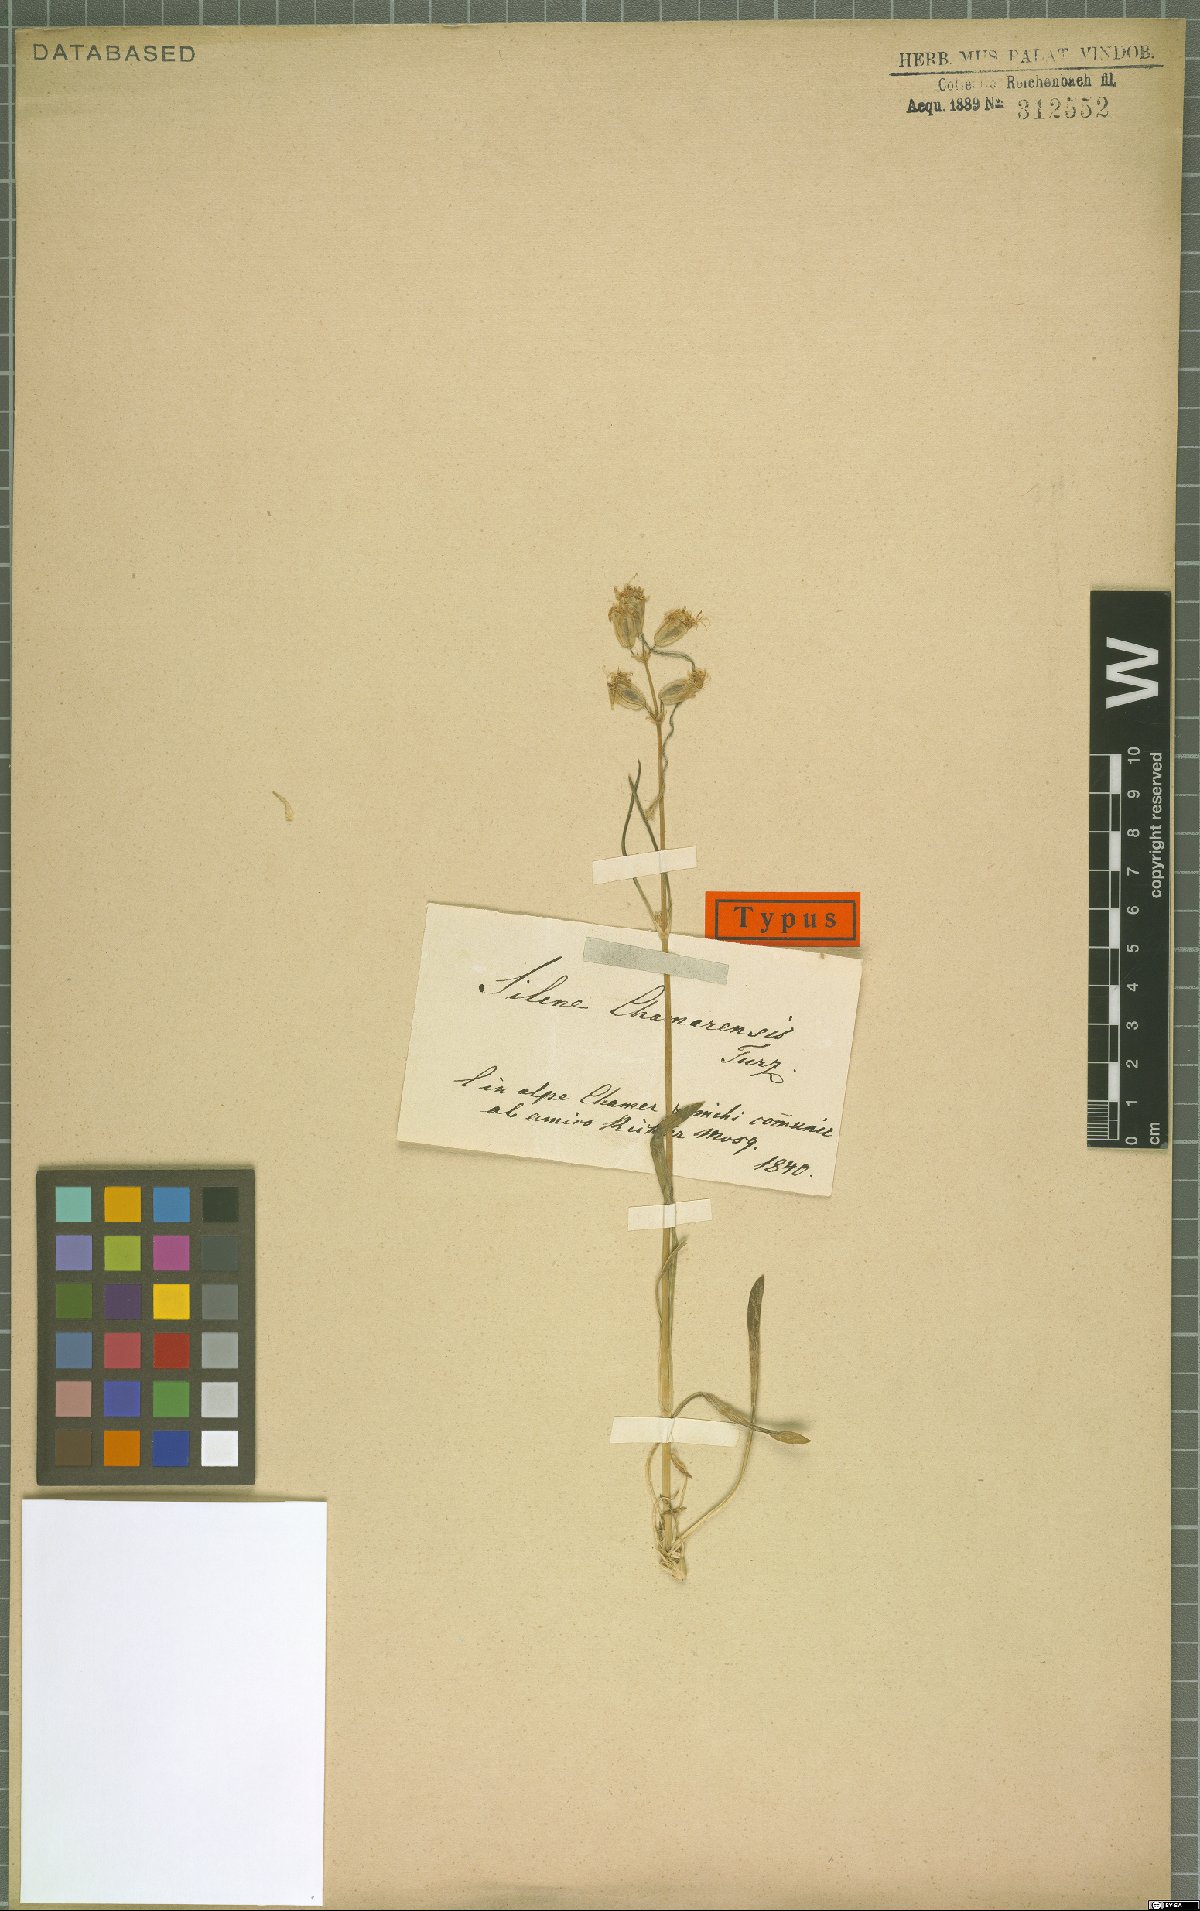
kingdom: Plantae
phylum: Tracheophyta
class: Magnoliopsida
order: Caryophyllales
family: Caryophyllaceae
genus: Silene
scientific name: Silene chamarensis
